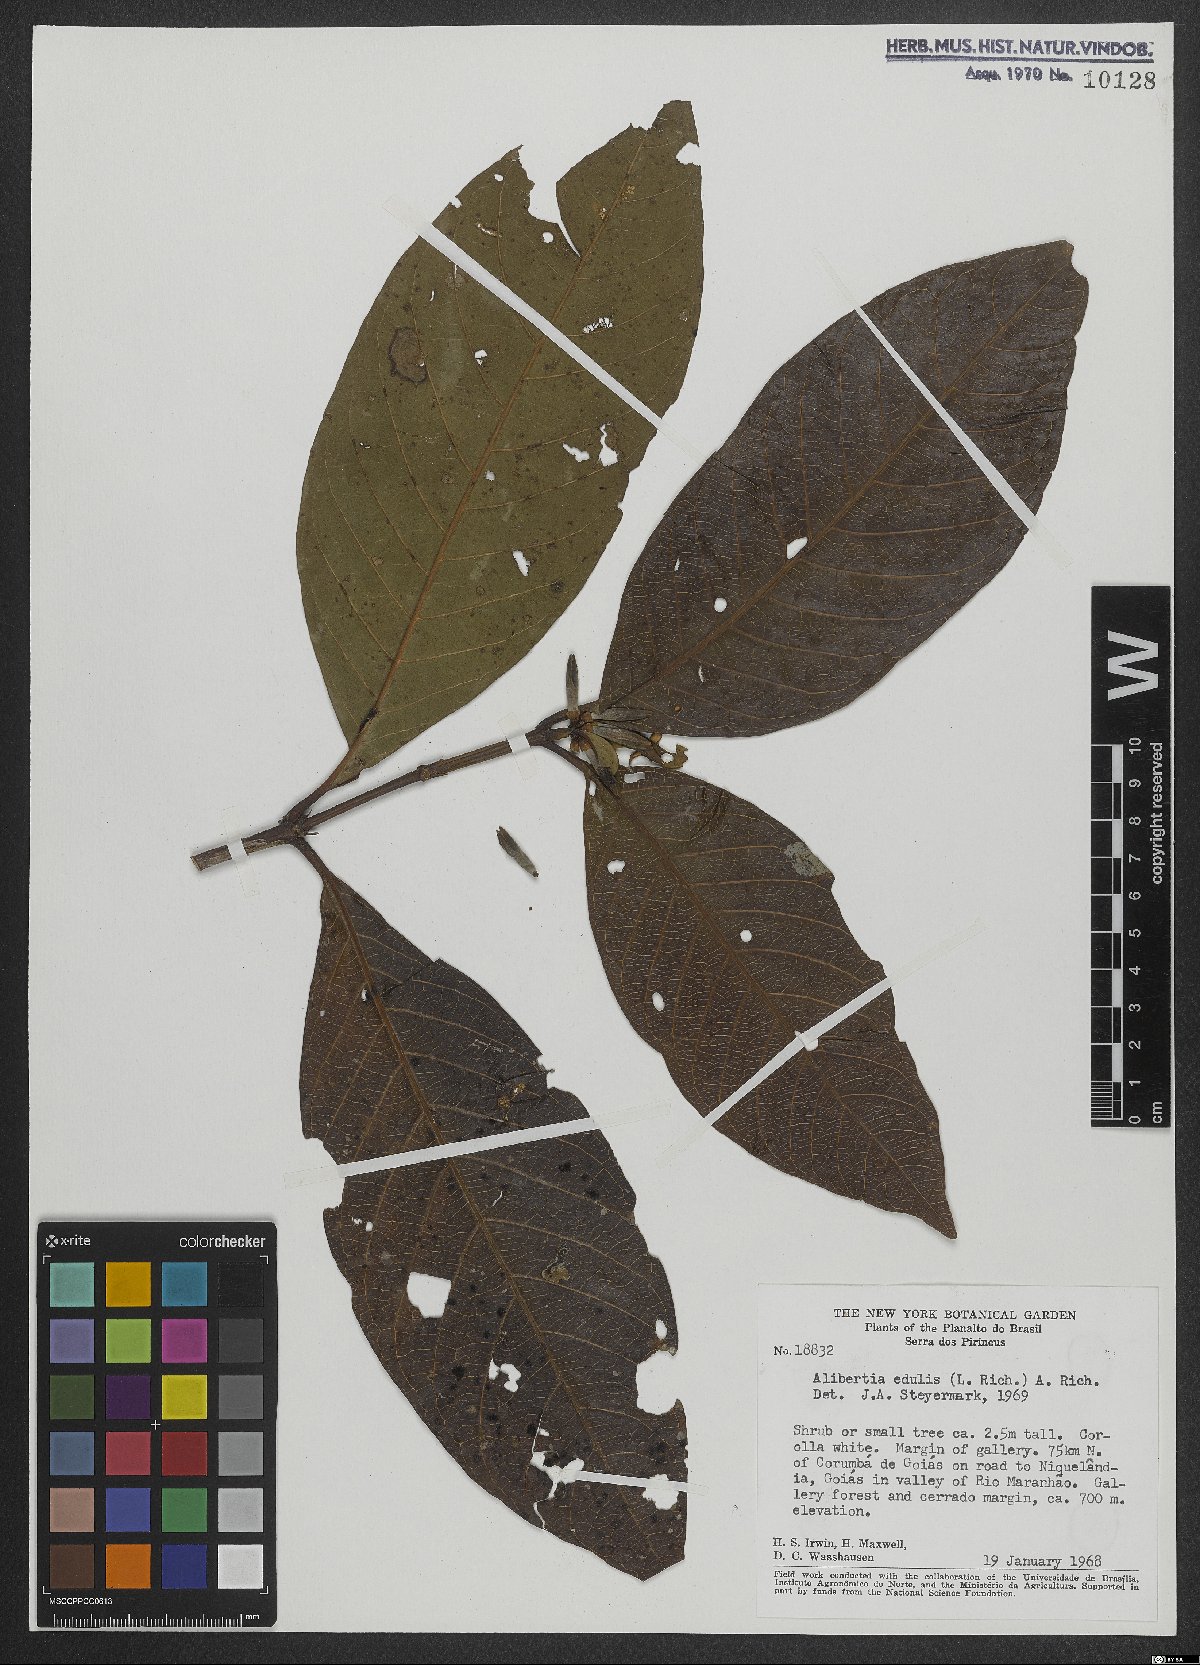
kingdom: Plantae
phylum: Tracheophyta
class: Magnoliopsida
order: Gentianales
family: Rubiaceae
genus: Alibertia
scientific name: Alibertia edulis
